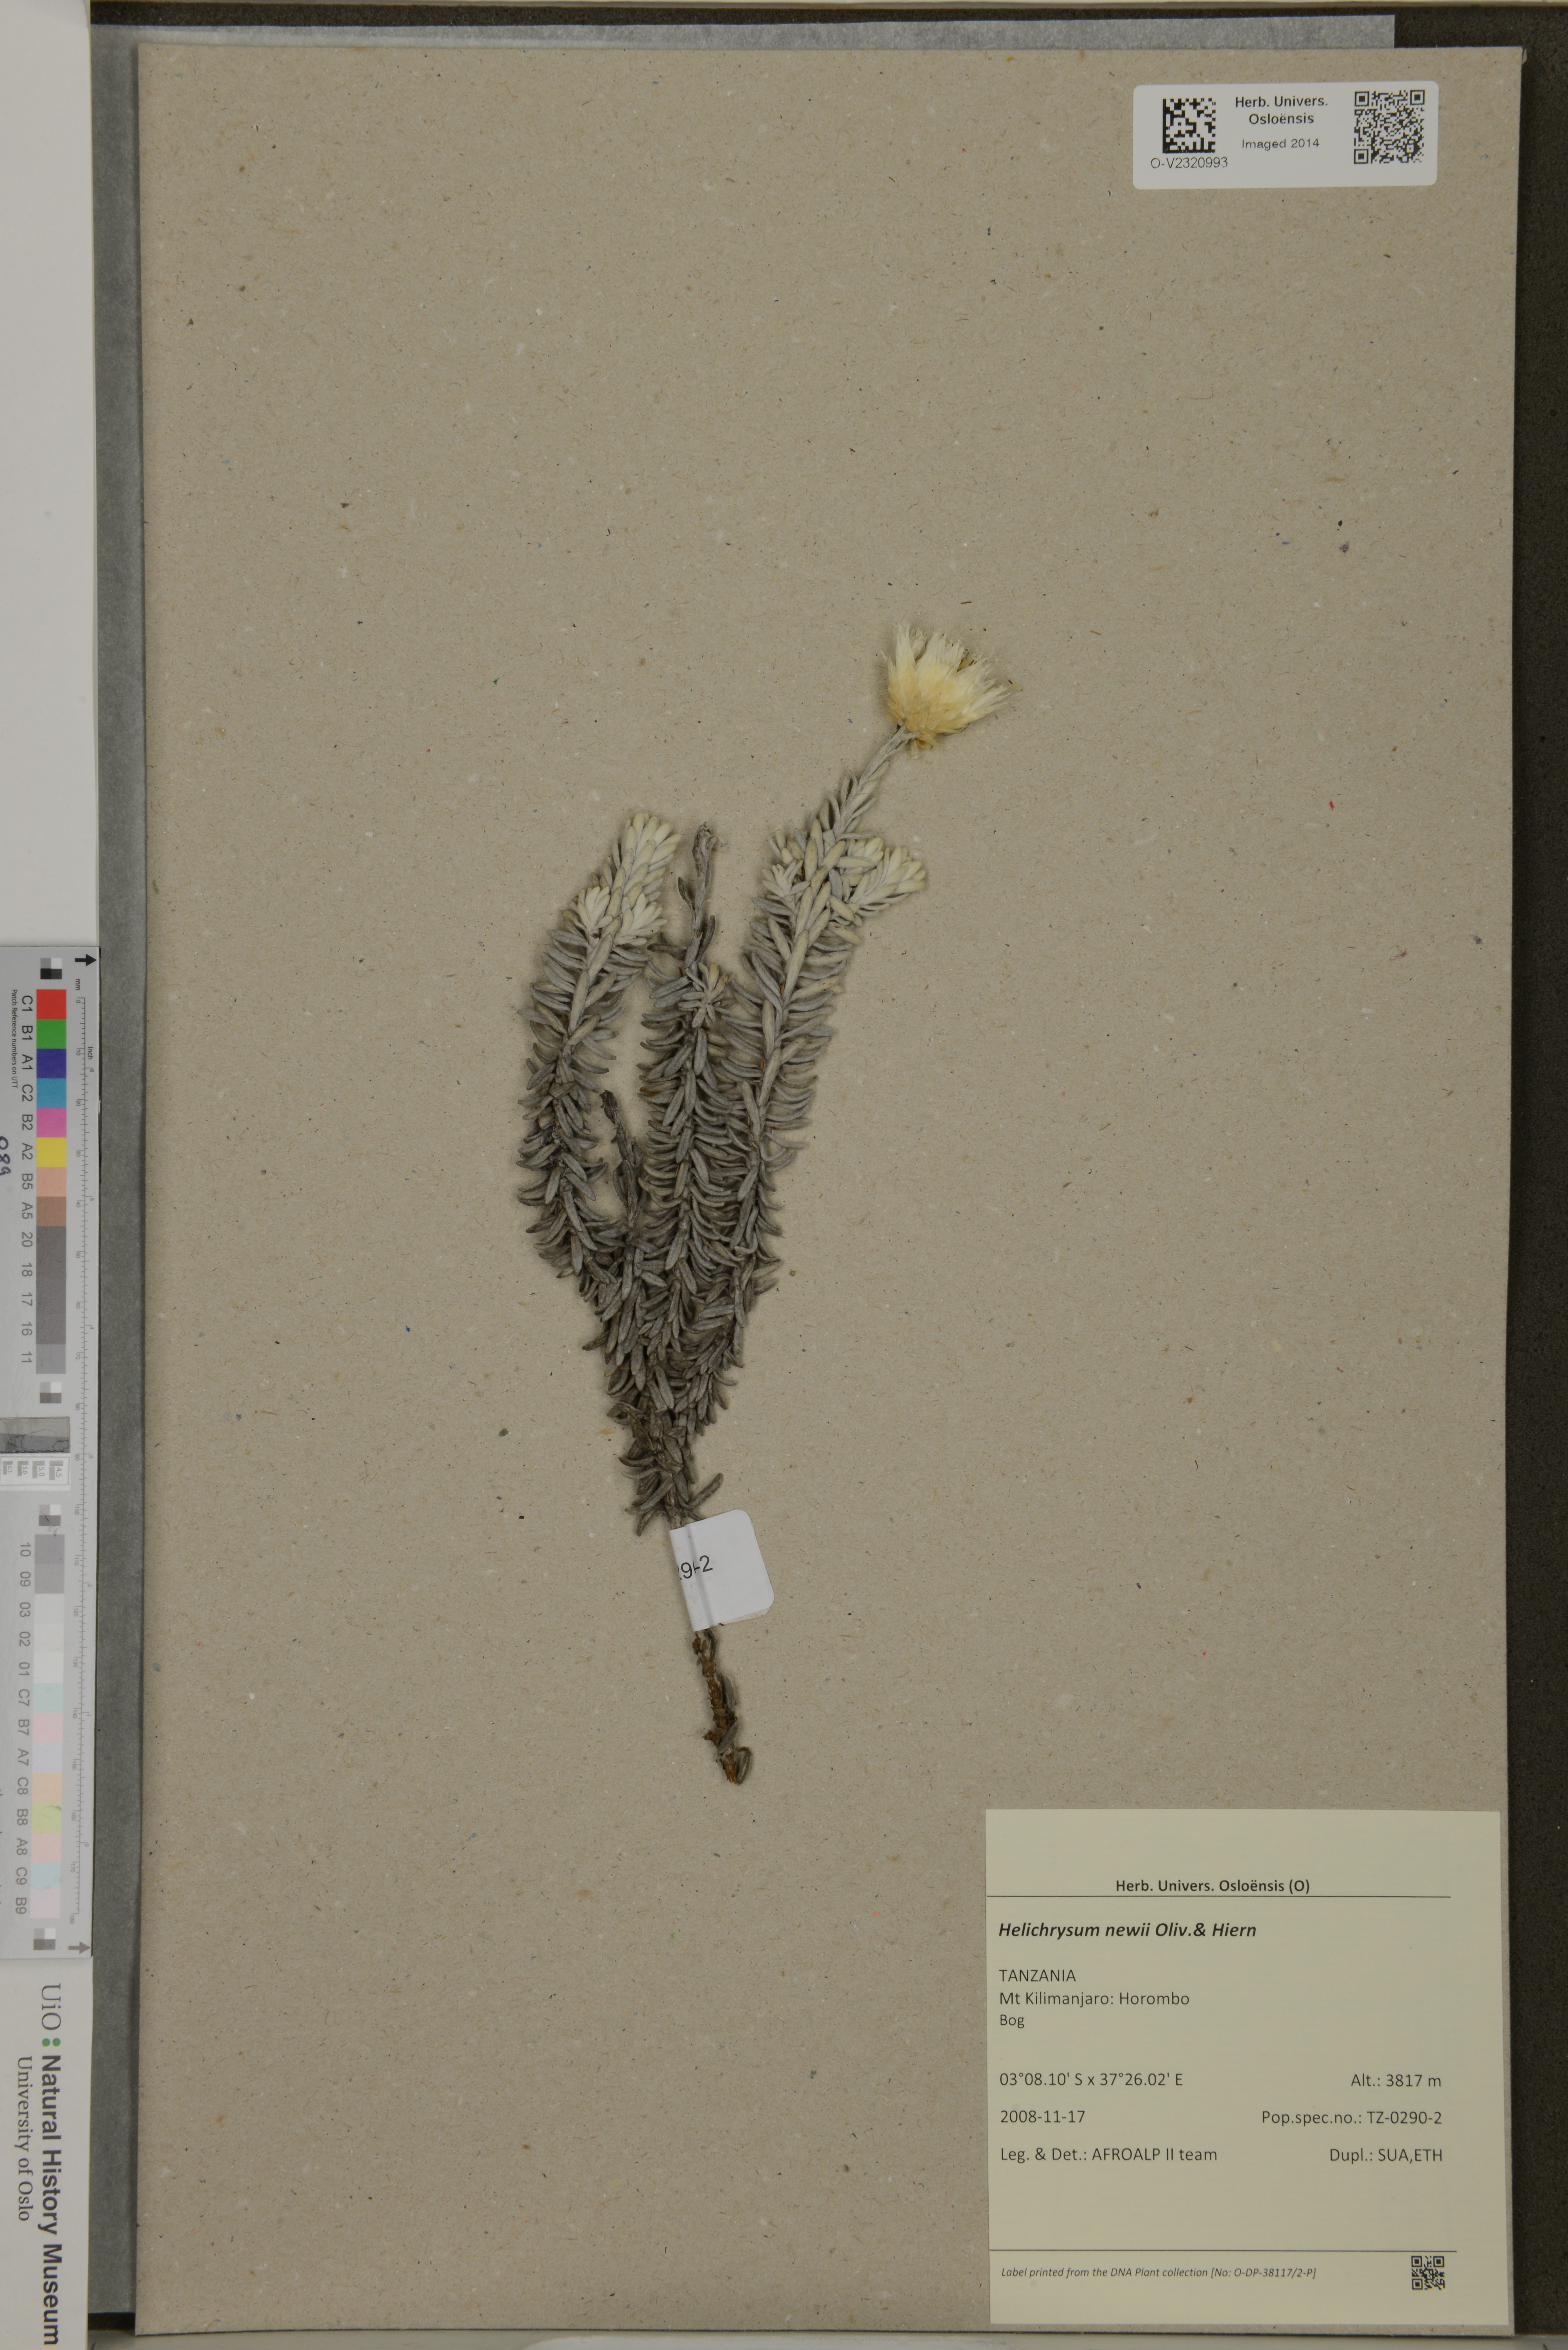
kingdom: Plantae
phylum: Tracheophyta
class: Magnoliopsida
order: Asterales
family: Asteraceae
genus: Helichrysum
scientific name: Helichrysum newii
